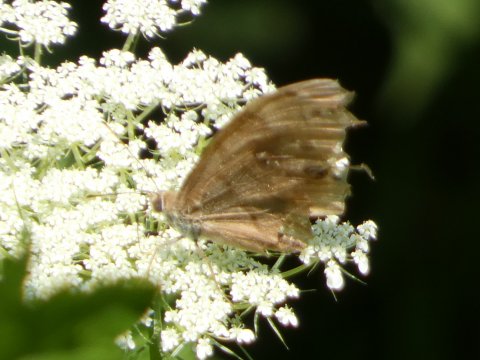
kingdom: Animalia
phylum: Arthropoda
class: Insecta
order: Lepidoptera
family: Nymphalidae
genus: Lethe
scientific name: Lethe anthedon
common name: Northern Pearly-Eye
